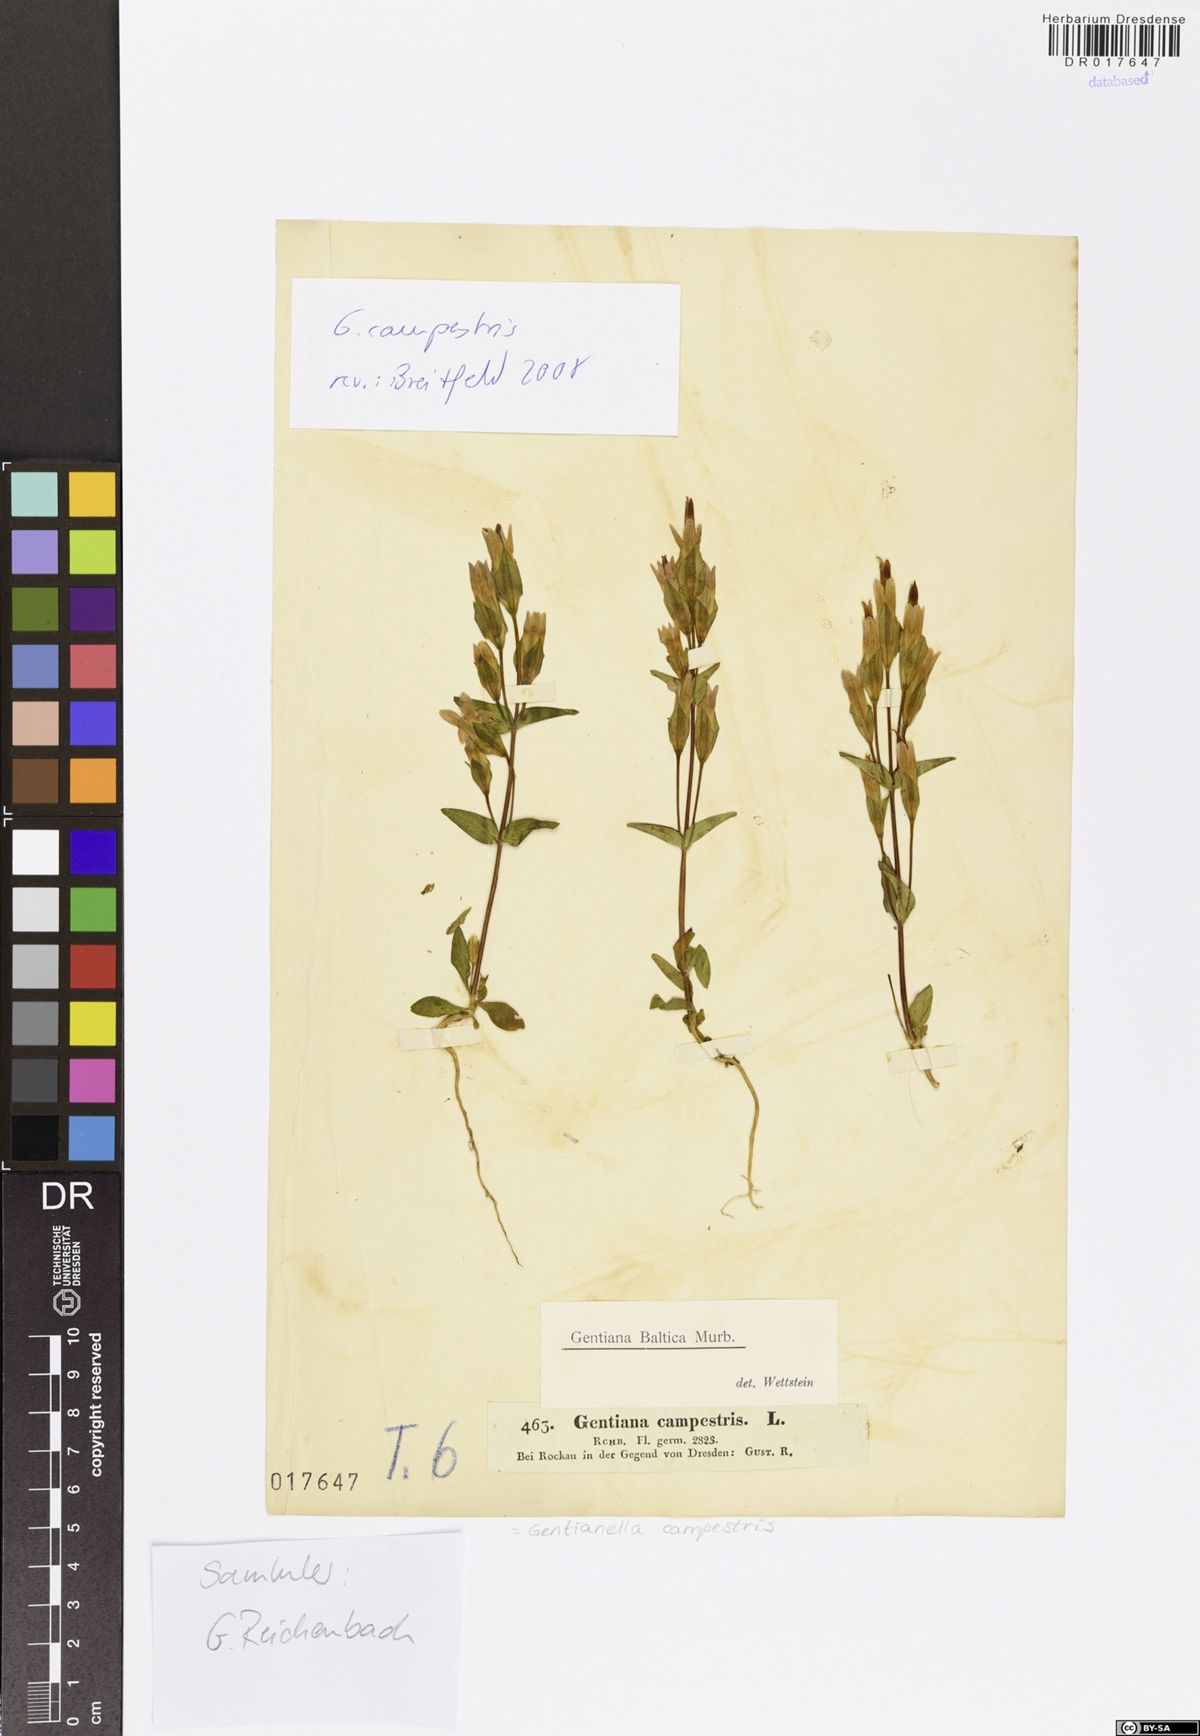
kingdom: Plantae
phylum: Tracheophyta
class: Magnoliopsida
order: Gentianales
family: Gentianaceae
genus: Gentianella
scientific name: Gentianella campestris
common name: Field gentian
